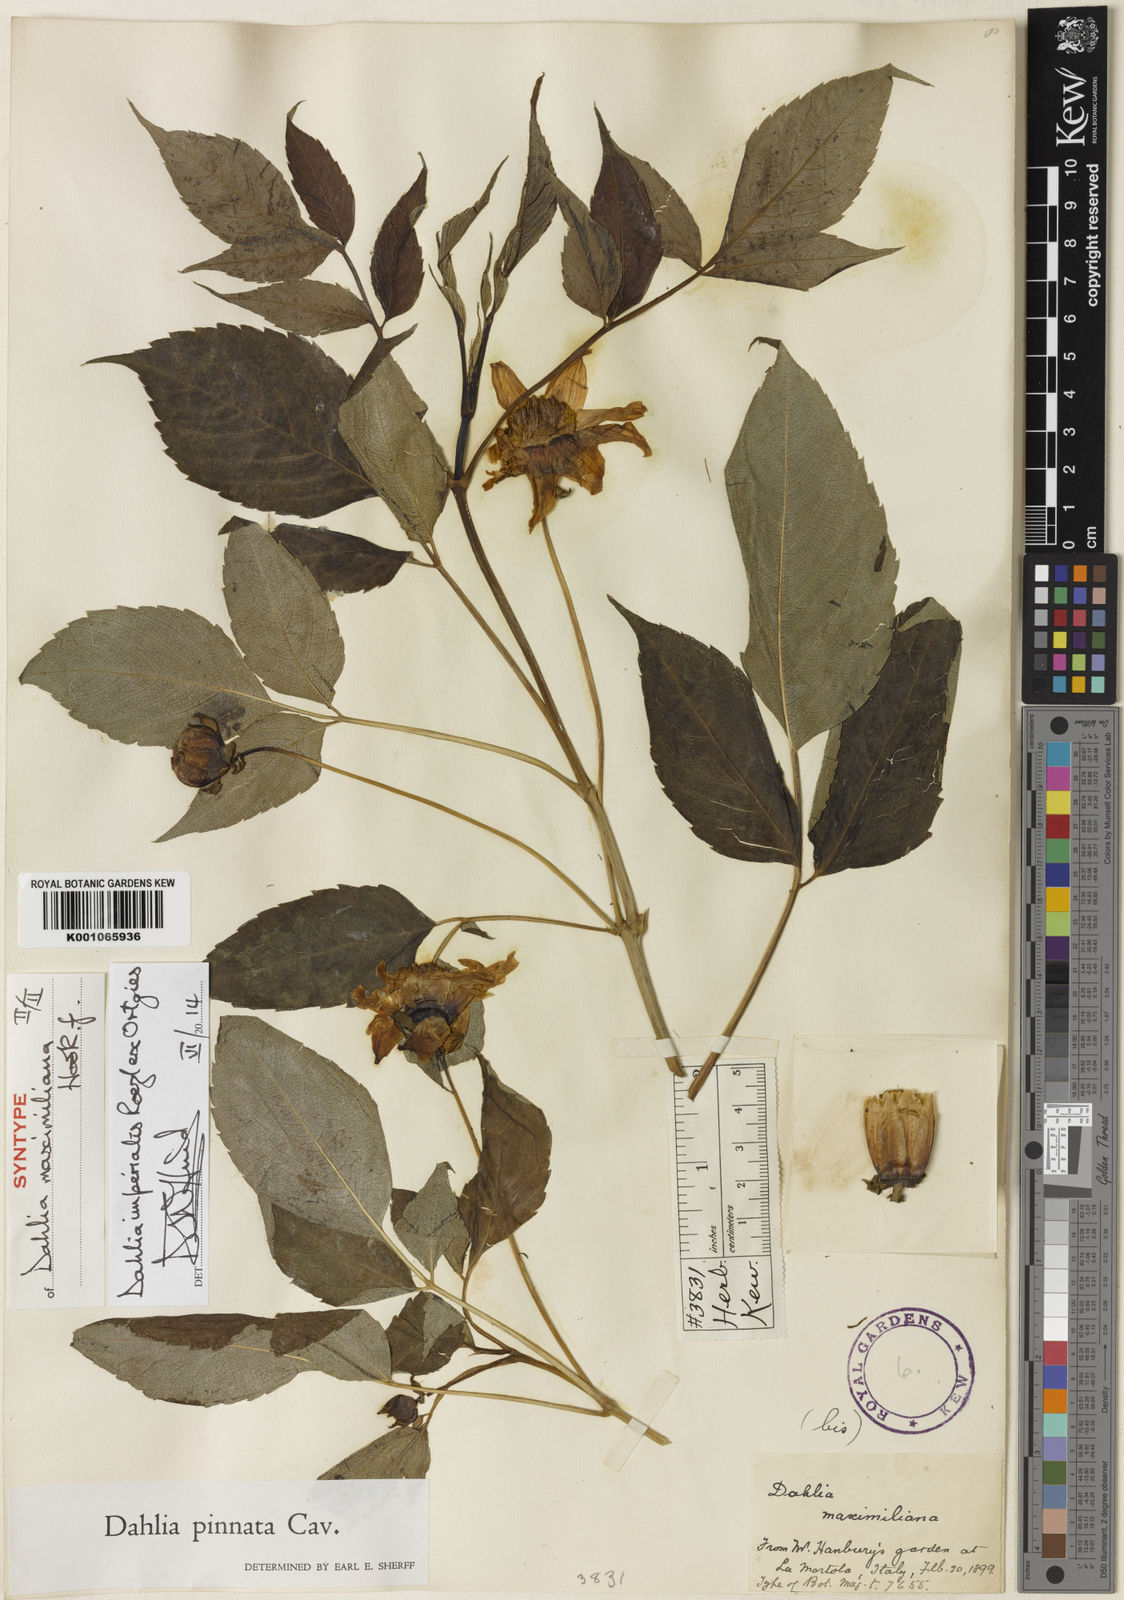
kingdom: Plantae
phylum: Tracheophyta
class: Magnoliopsida
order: Asterales
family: Asteraceae
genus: Dahlia
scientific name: Dahlia pinnata
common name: Dahlia
